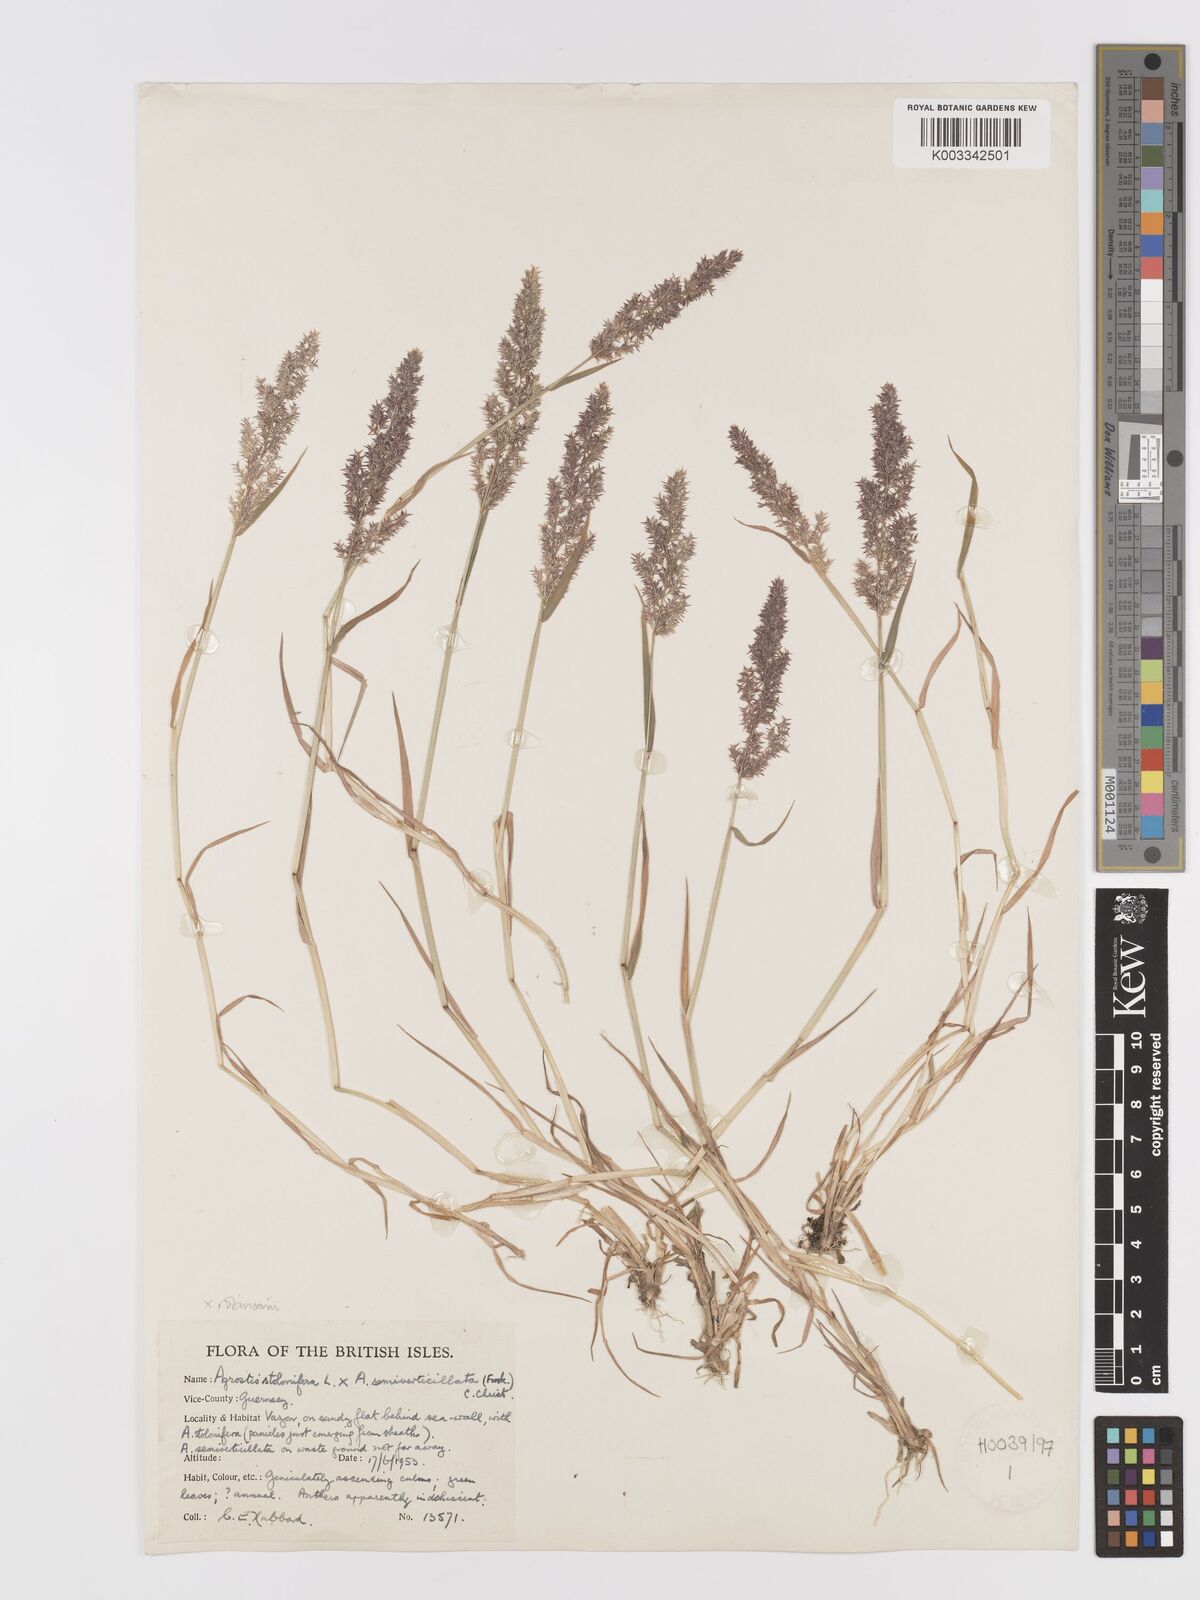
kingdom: Plantae
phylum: Tracheophyta
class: Liliopsida
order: Poales
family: Poaceae
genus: Agrostis
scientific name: Agrostis gigantea
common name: Black bent
